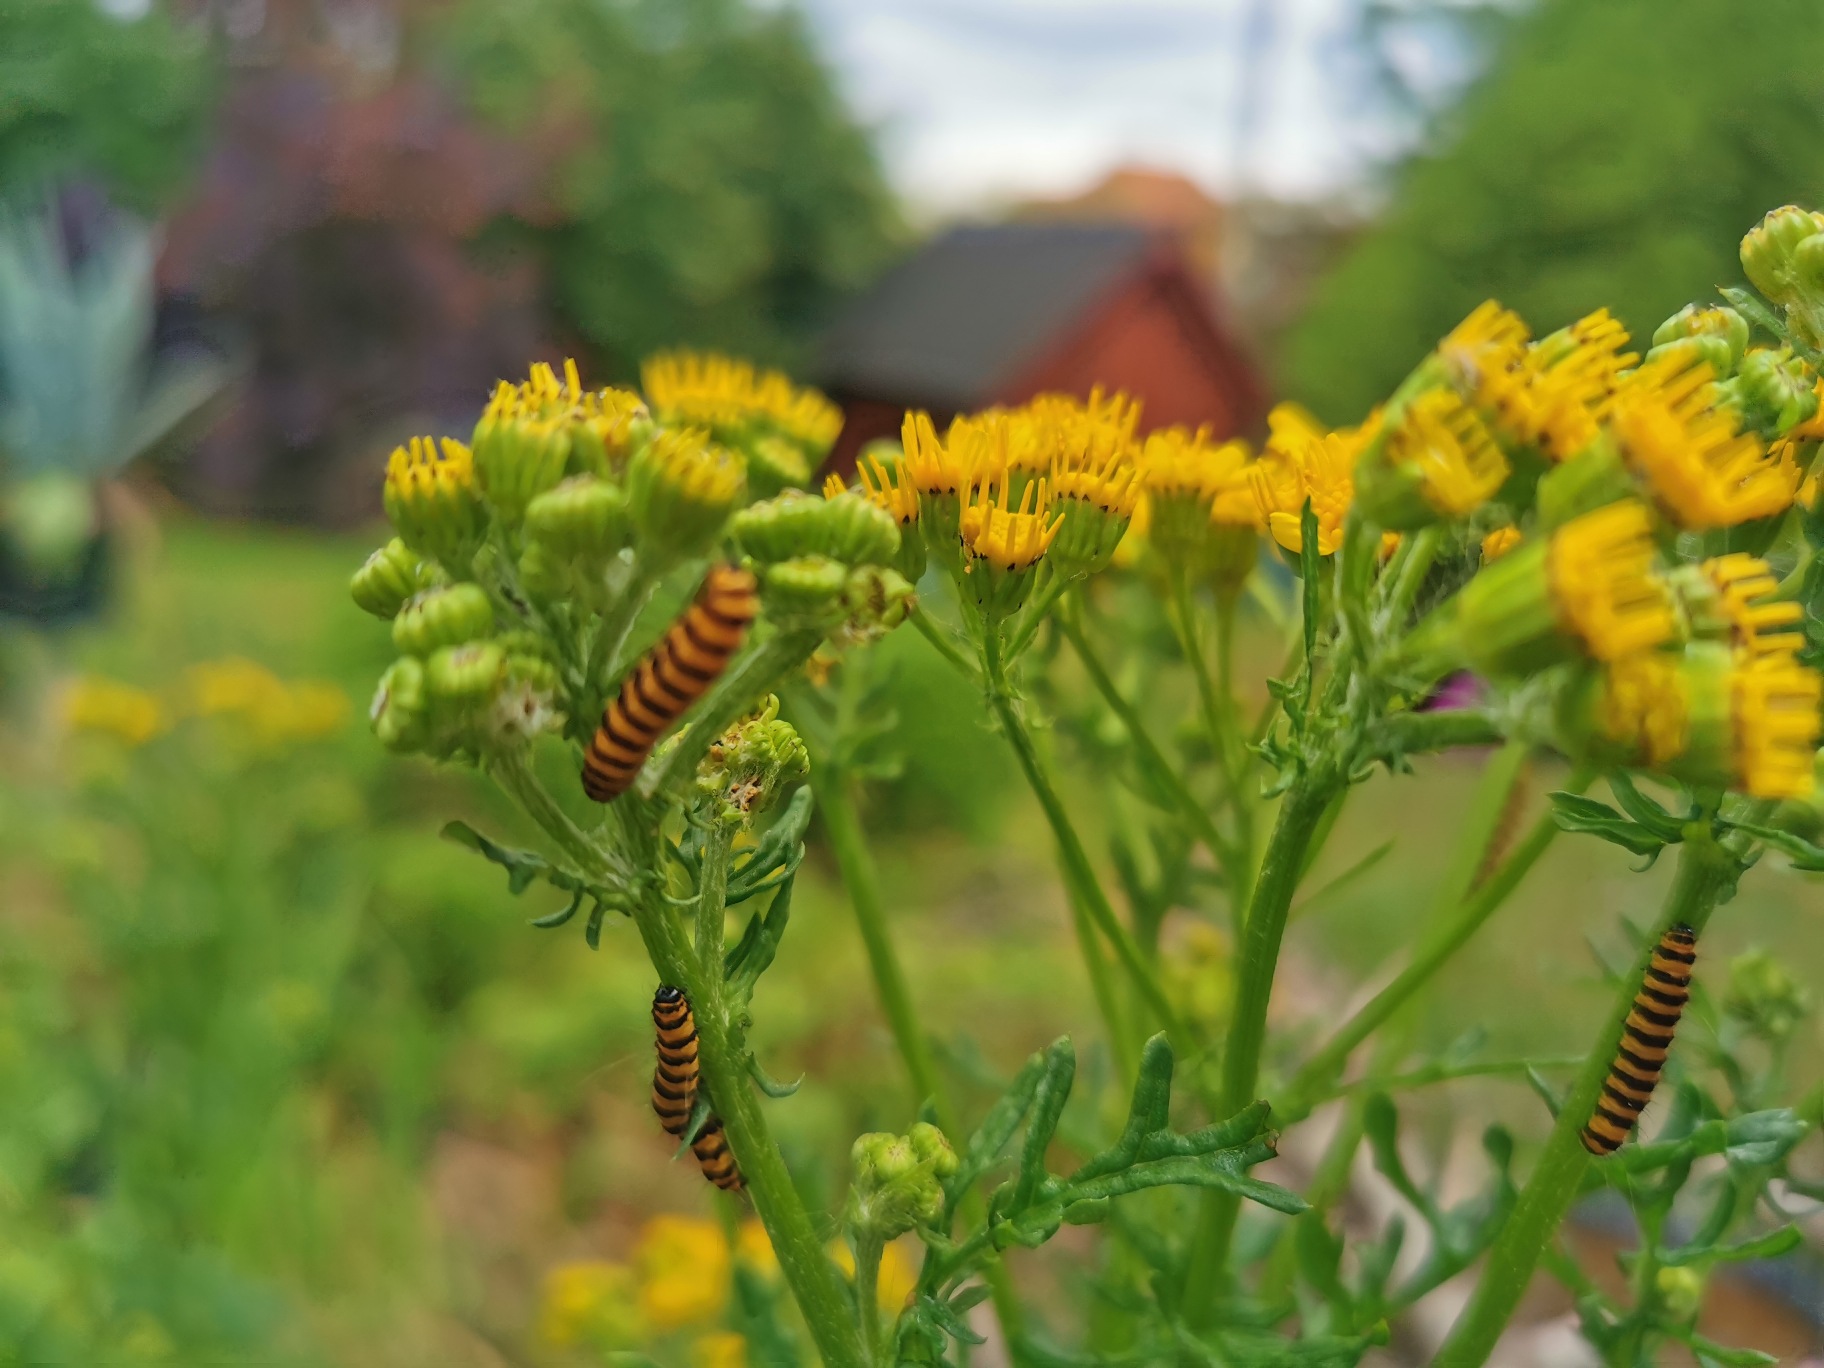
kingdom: Plantae
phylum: Tracheophyta
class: Magnoliopsida
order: Asterales
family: Asteraceae
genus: Jacobaea
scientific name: Jacobaea vulgaris
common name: Eng-brandbæger
